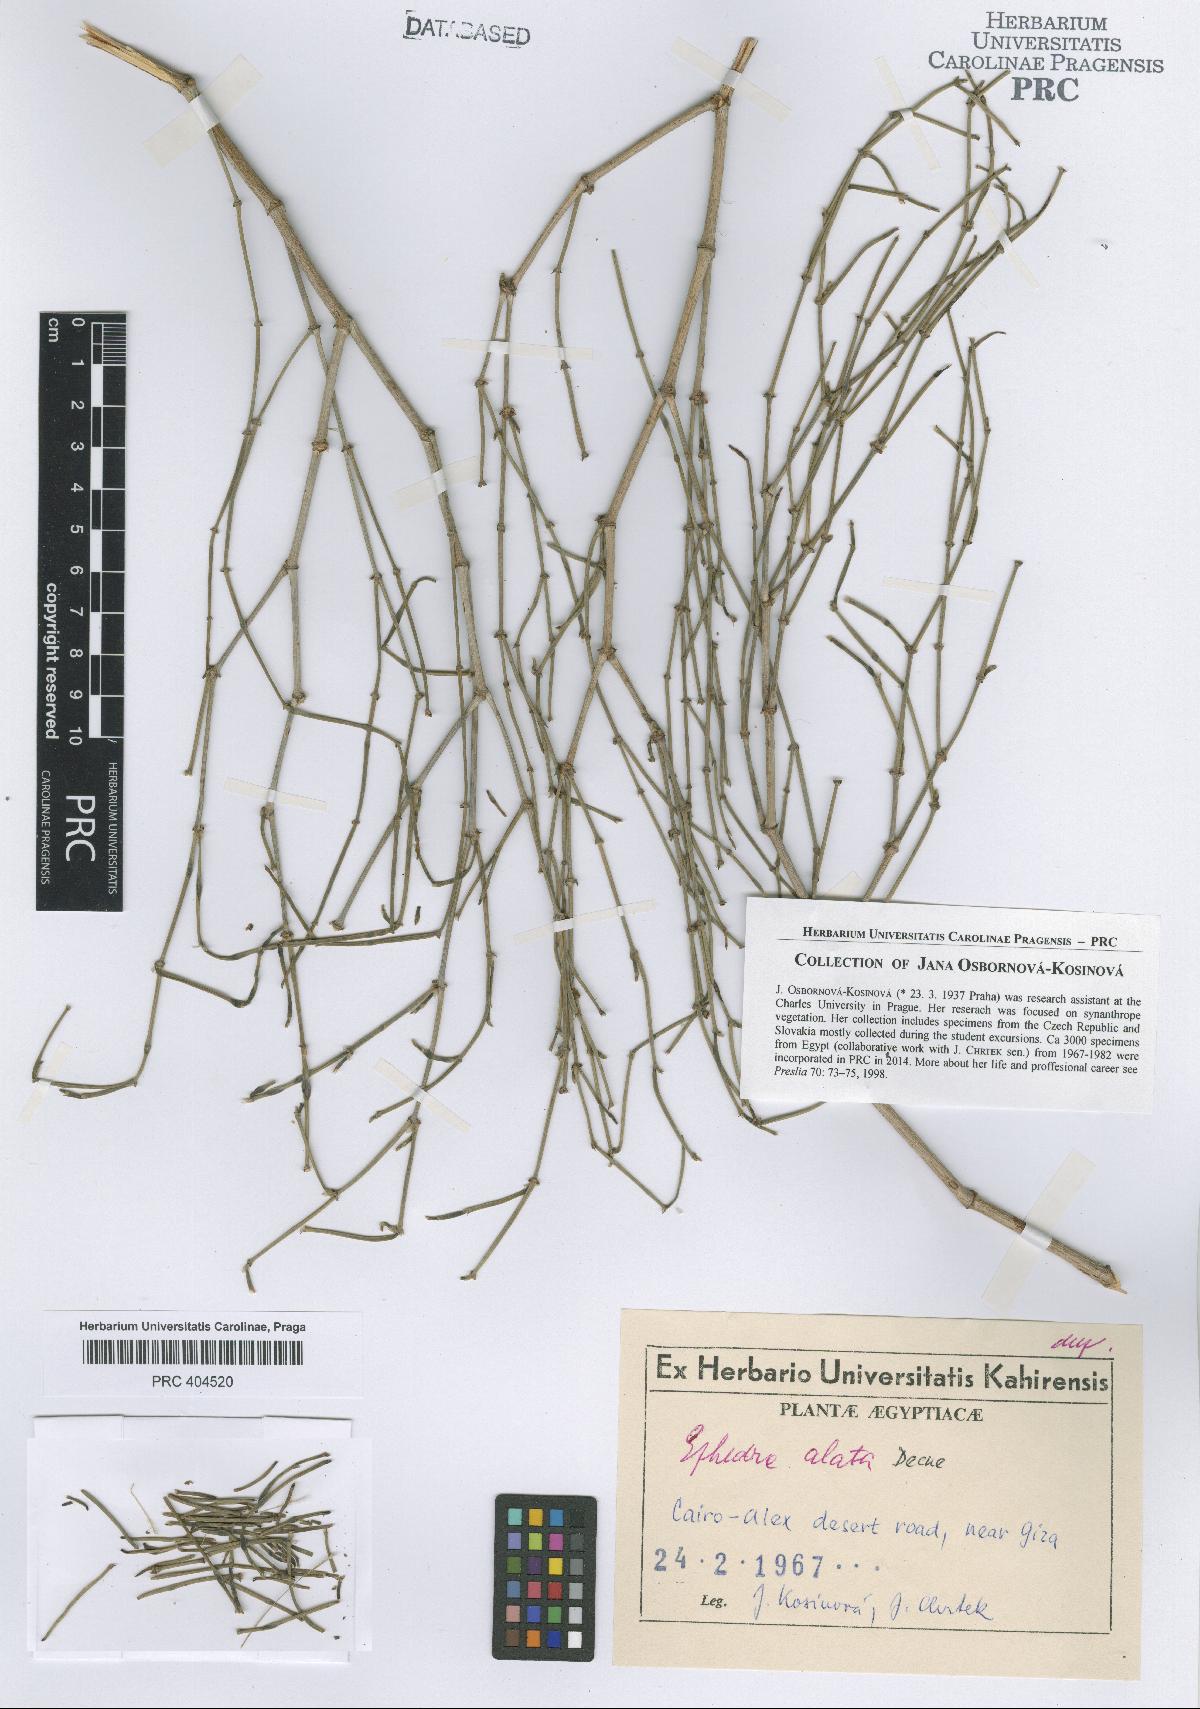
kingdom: Plantae
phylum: Tracheophyta
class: Gnetopsida
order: Ephedrales
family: Ephedraceae
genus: Ephedra
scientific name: Ephedra alata
